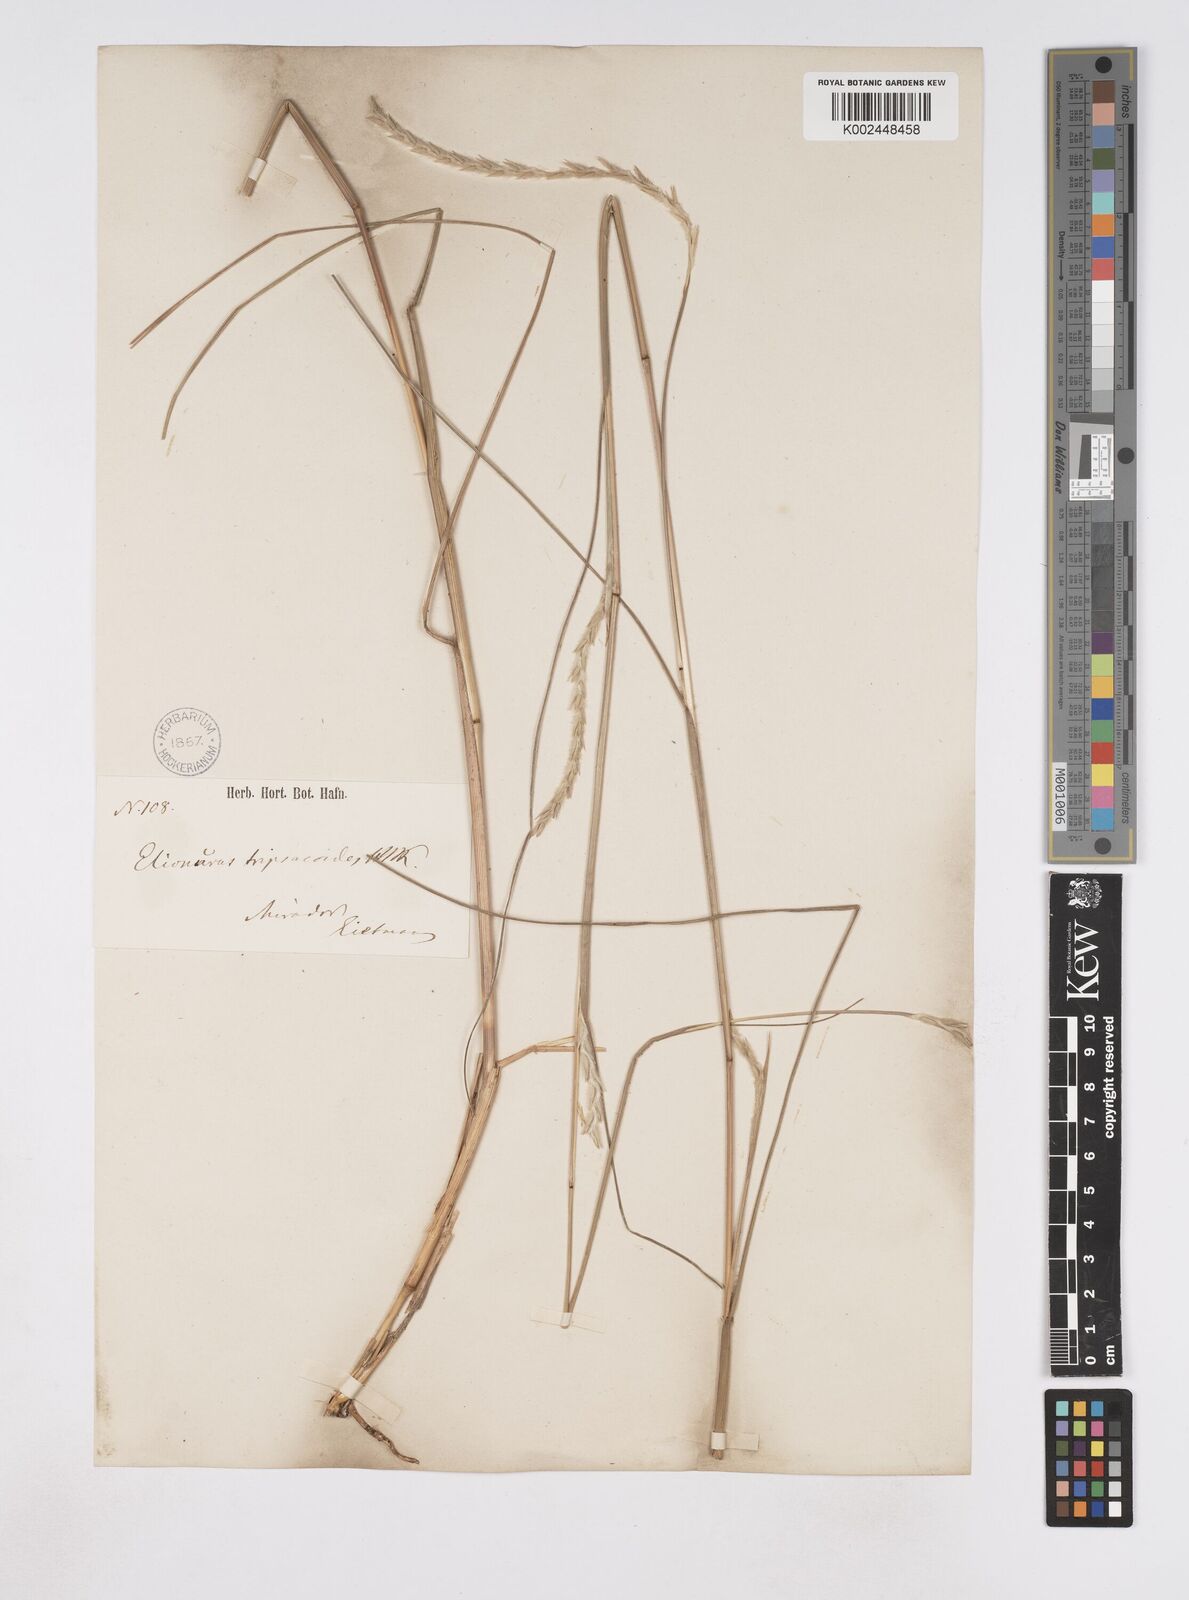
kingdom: Plantae
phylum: Tracheophyta
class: Liliopsida
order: Poales
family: Poaceae
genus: Elionurus
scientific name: Elionurus ciliaris
